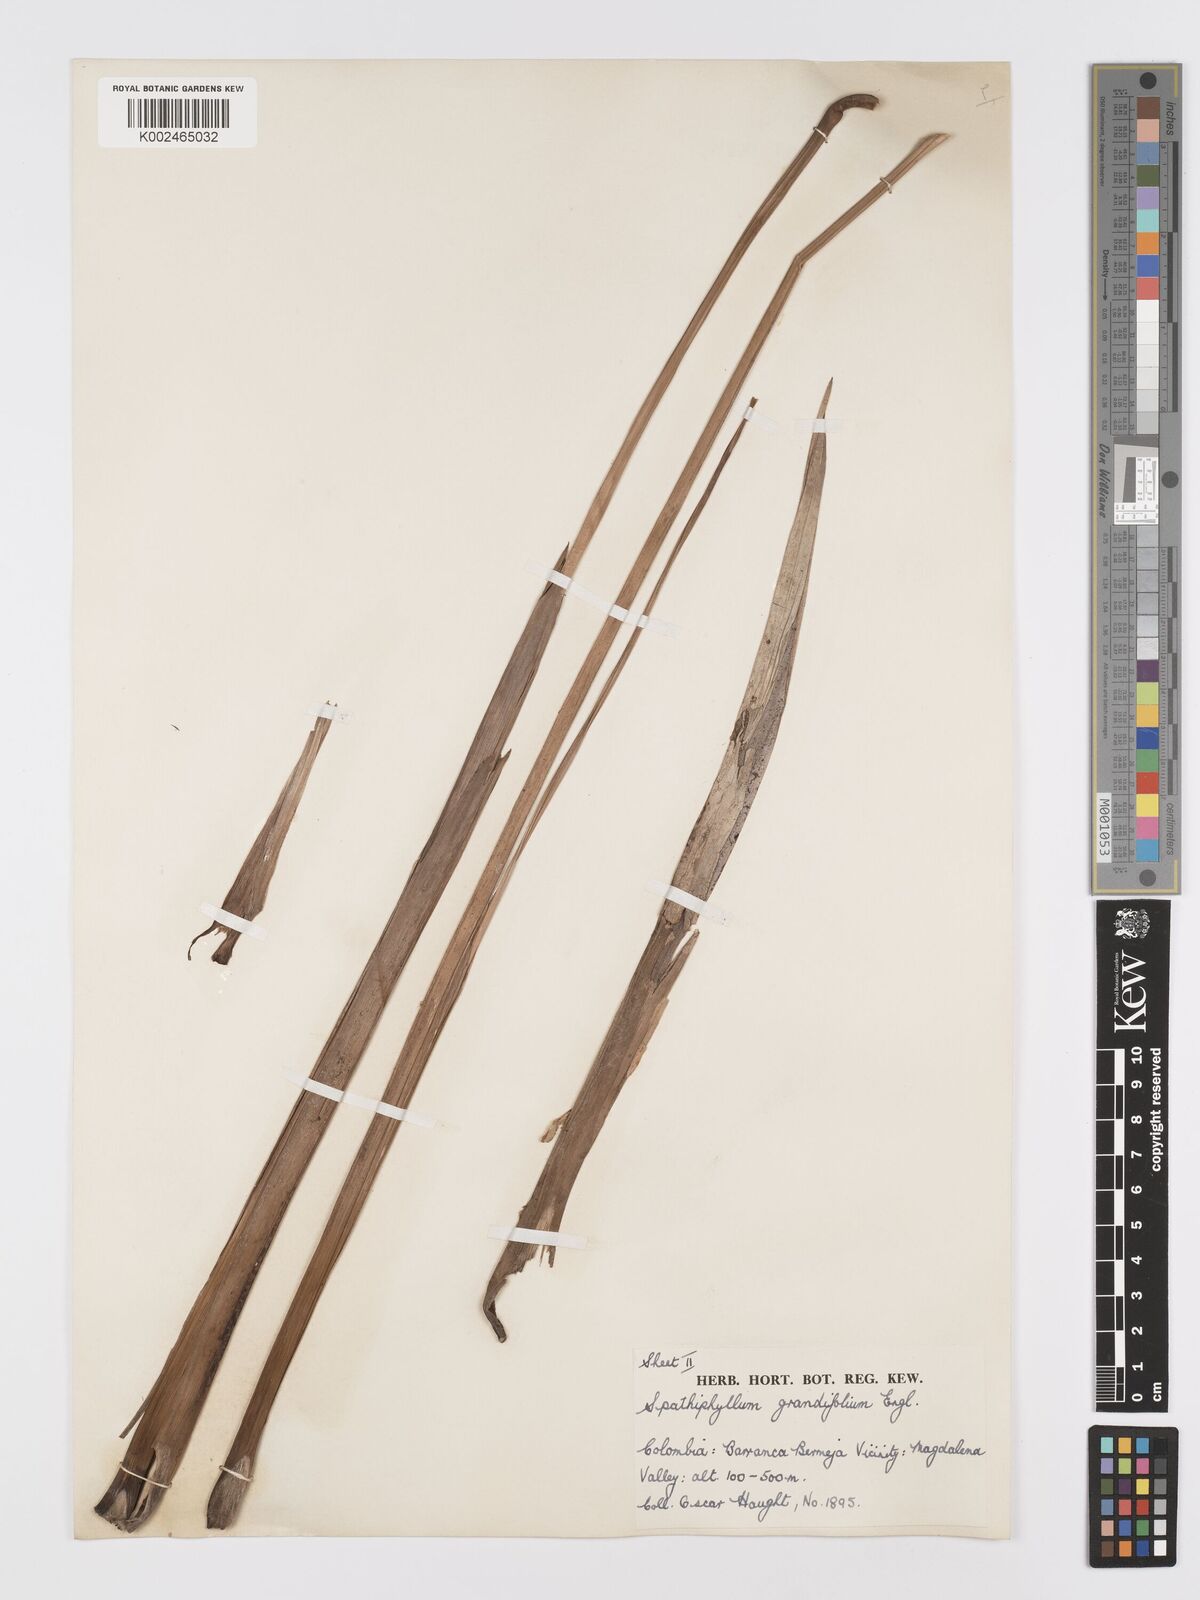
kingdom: Plantae
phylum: Tracheophyta
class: Liliopsida
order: Alismatales
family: Araceae
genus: Spathiphyllum
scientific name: Spathiphyllum grandifolium
